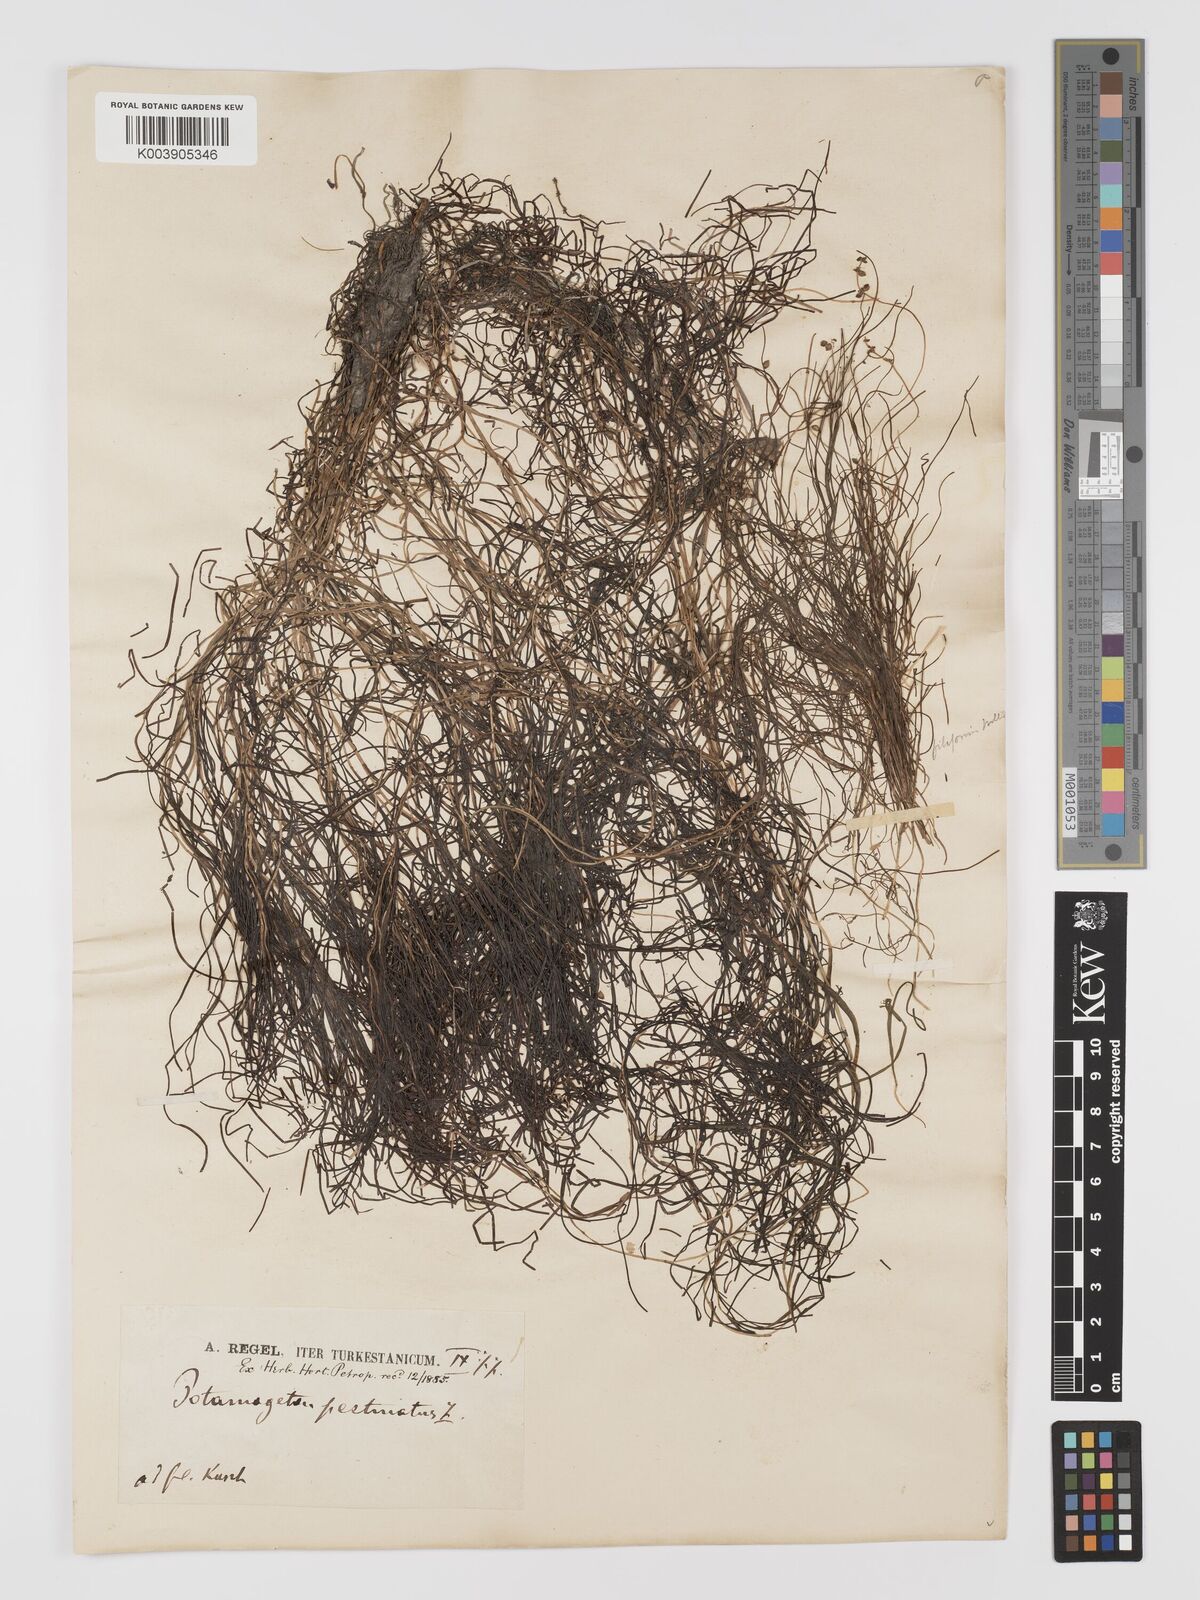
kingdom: Plantae
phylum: Tracheophyta
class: Liliopsida
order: Alismatales
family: Potamogetonaceae
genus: Stuckenia
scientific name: Stuckenia pectinata
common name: Sago pondweed
